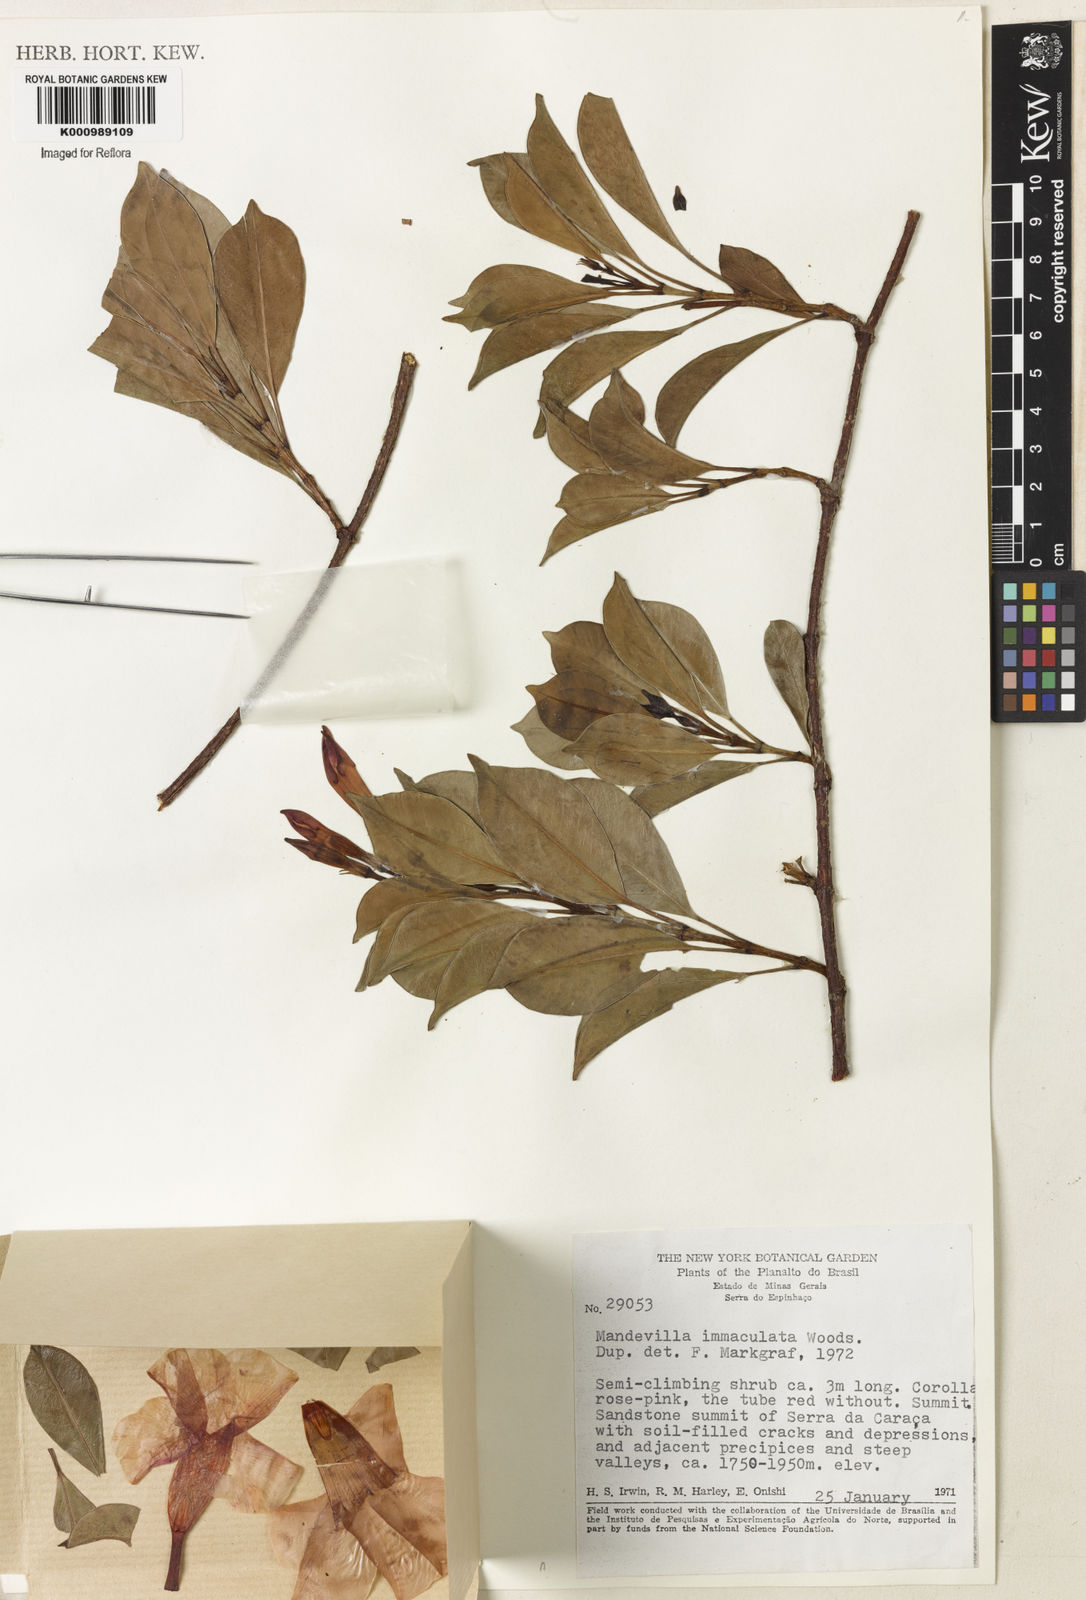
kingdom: Plantae
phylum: Tracheophyta
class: Magnoliopsida
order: Gentianales
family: Apocynaceae
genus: Mandevilla
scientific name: Mandevilla immaculata
